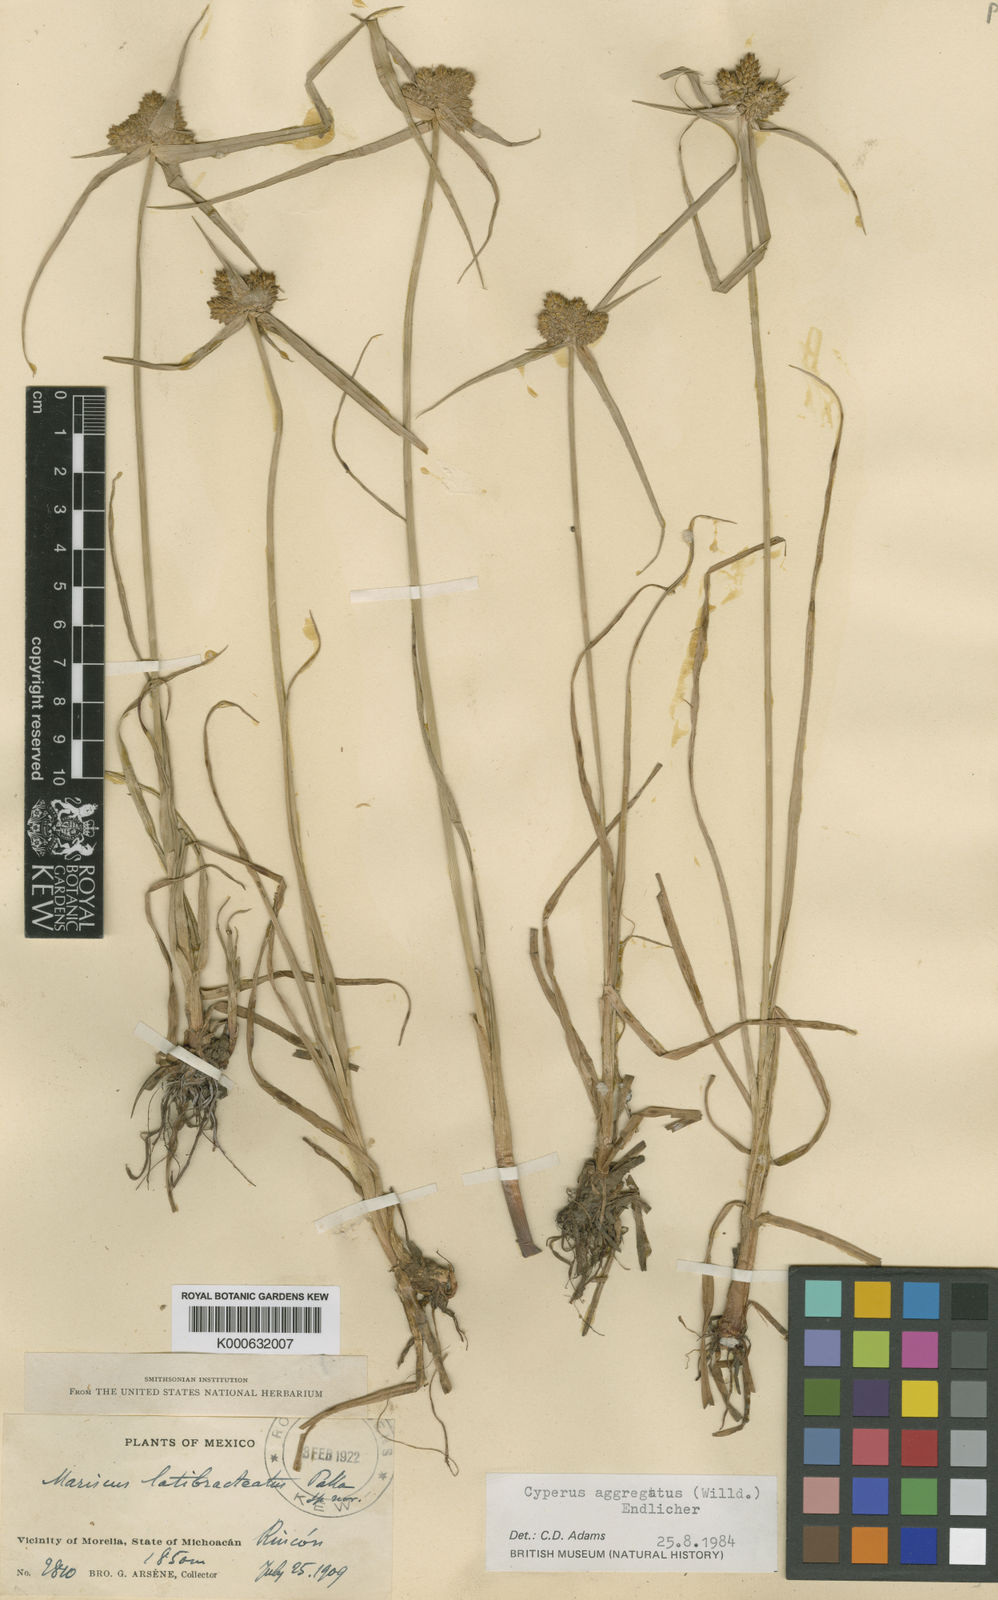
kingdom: Plantae
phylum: Tracheophyta
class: Liliopsida
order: Poales
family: Cyperaceae
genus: Cyperus
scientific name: Cyperus aggregatus
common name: Inflatedscale flatsedge
